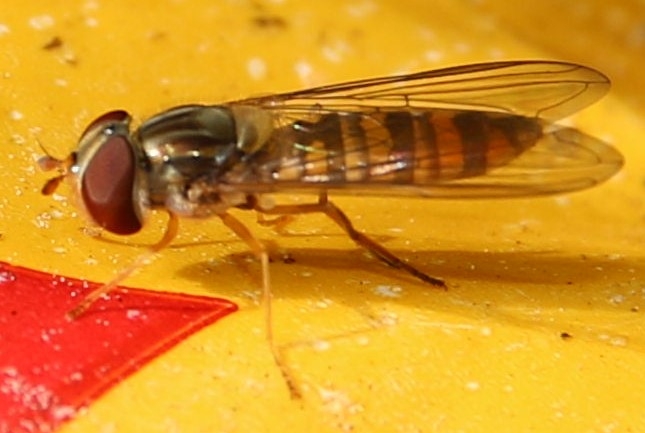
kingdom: Animalia
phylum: Arthropoda
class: Insecta
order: Diptera
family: Syrphidae
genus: Episyrphus
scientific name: Episyrphus balteatus
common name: Dobbeltbåndet svirreflue
